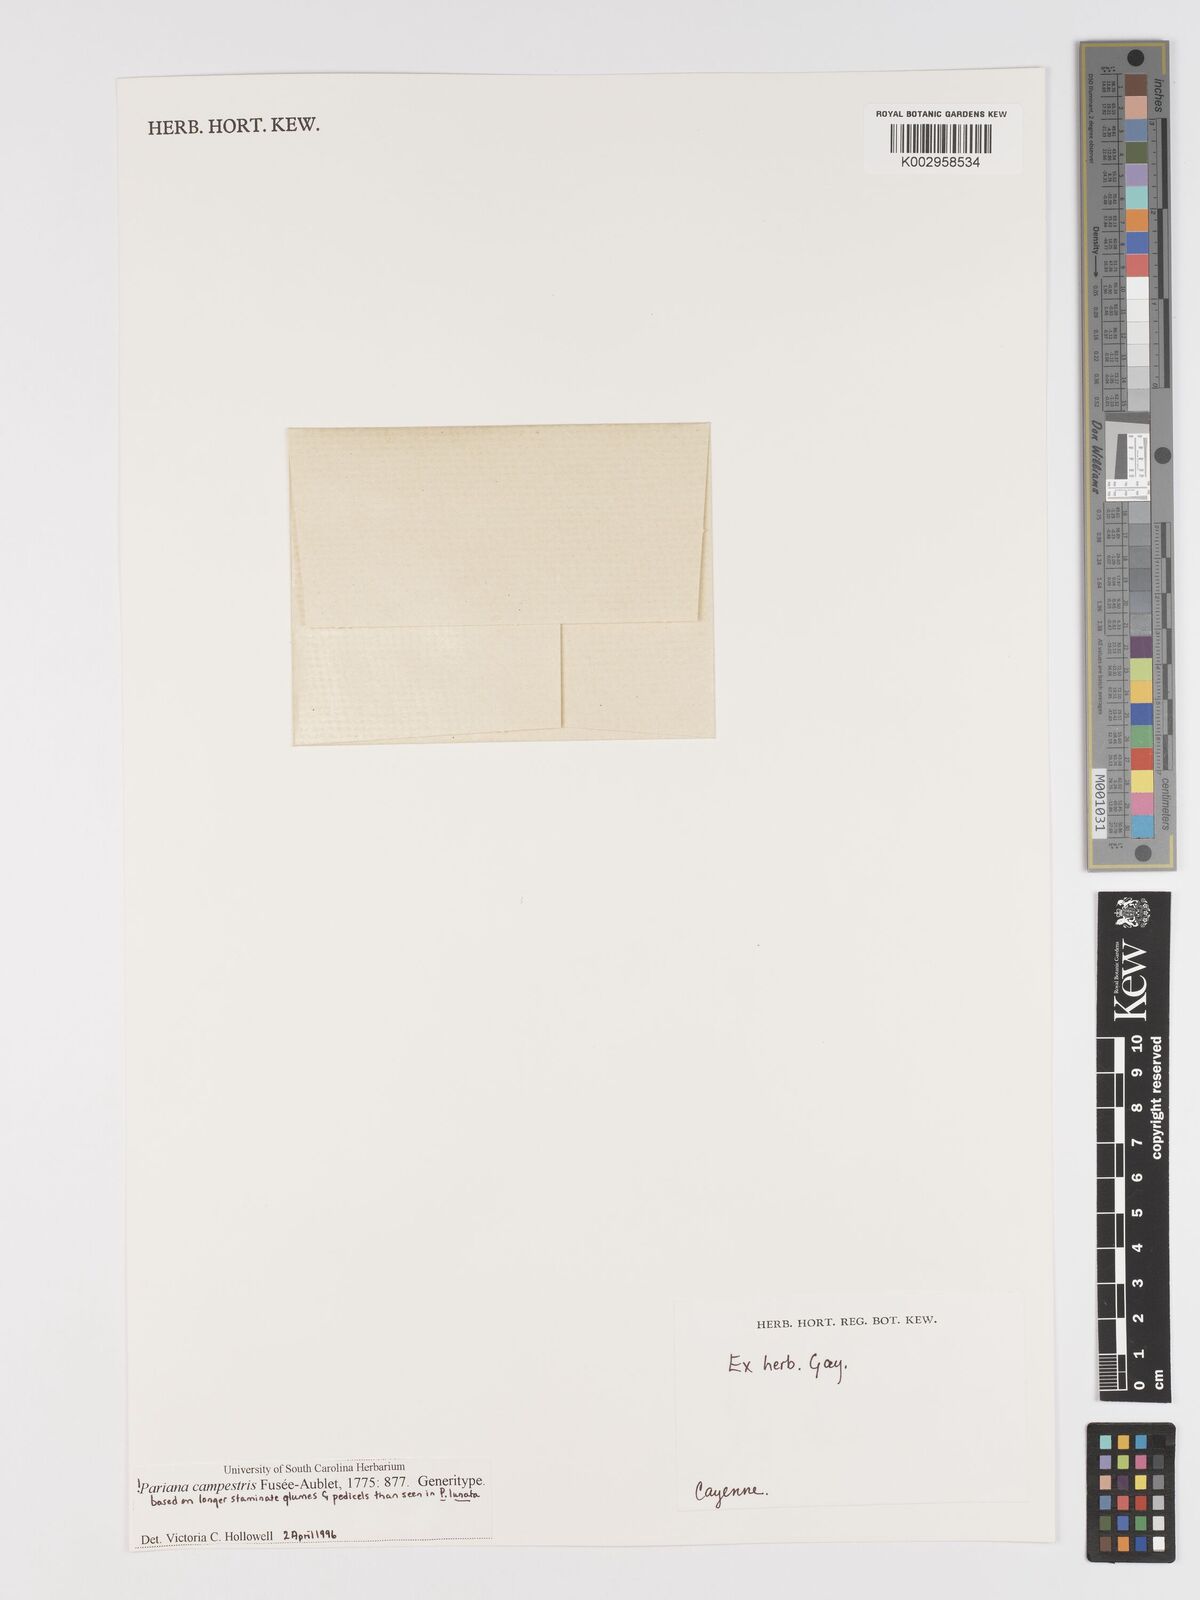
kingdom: Plantae
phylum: Tracheophyta
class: Liliopsida
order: Poales
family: Poaceae
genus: Pariana
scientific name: Pariana campestris
